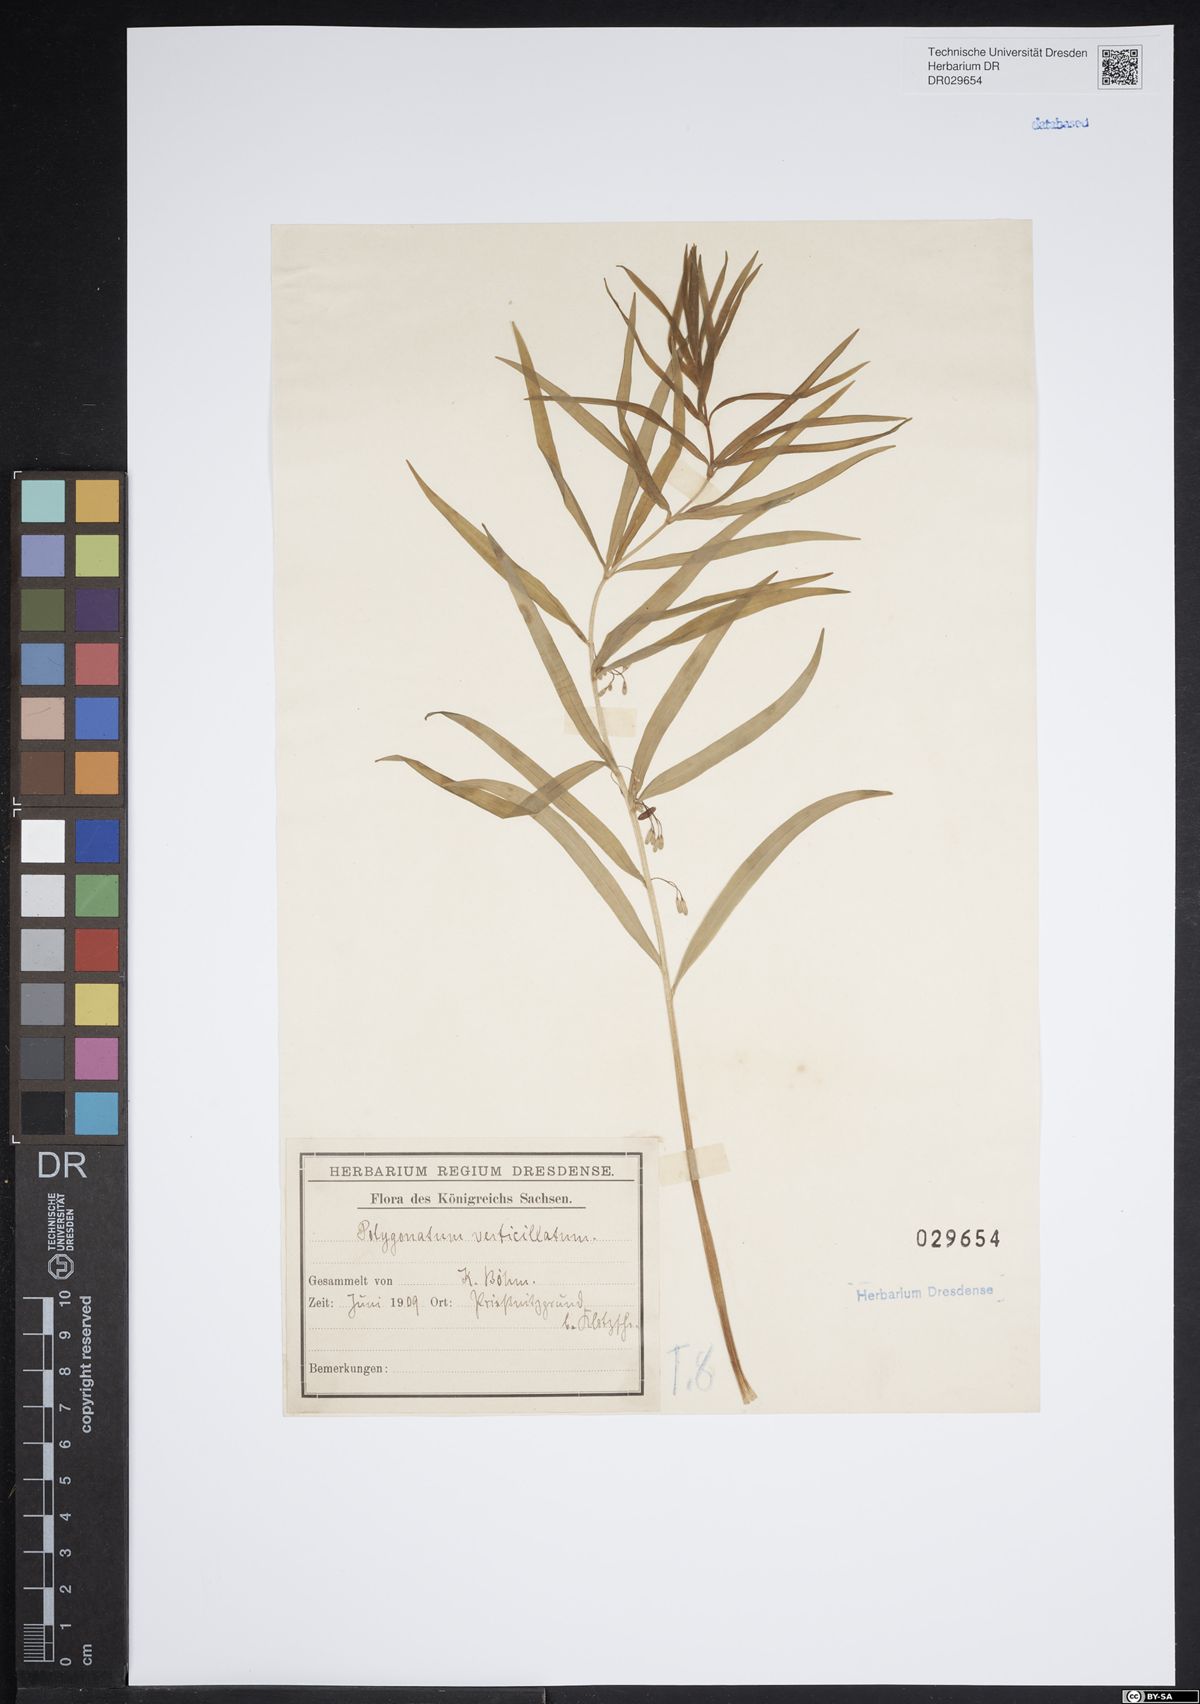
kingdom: Plantae
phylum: Tracheophyta
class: Liliopsida
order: Asparagales
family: Asparagaceae
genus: Polygonatum
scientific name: Polygonatum verticillatum
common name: Whorled solomon's-seal
